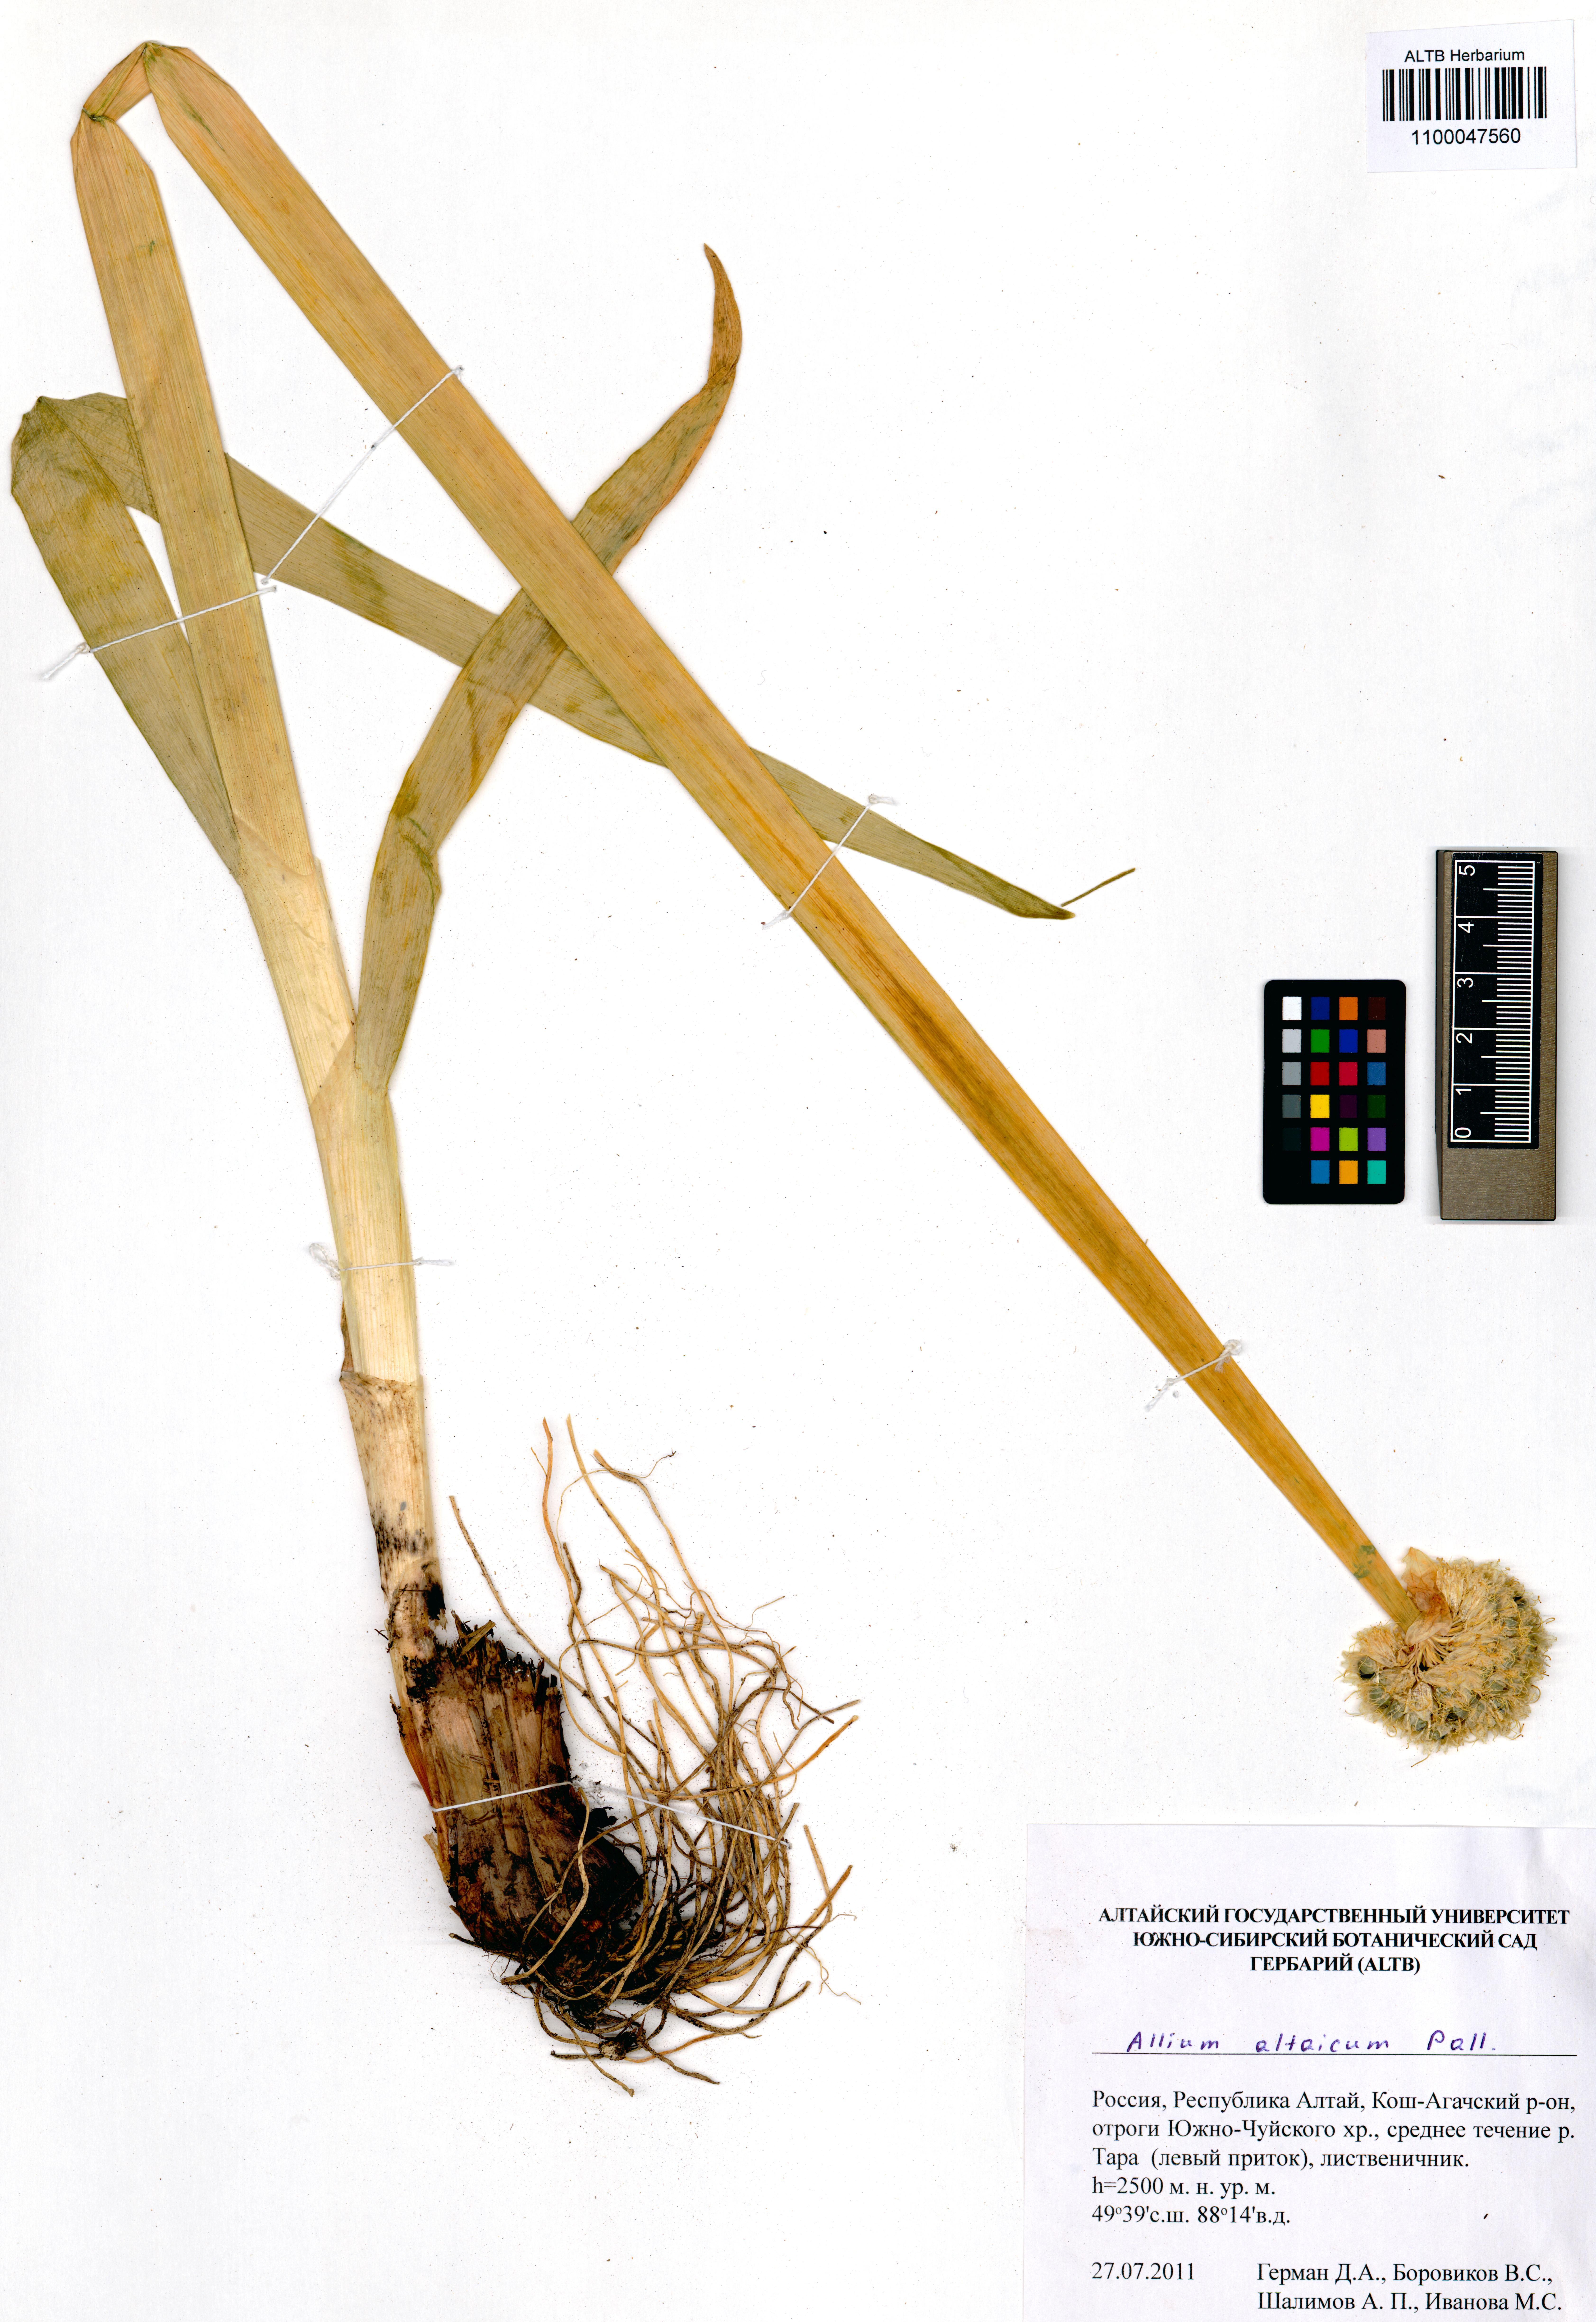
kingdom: Plantae
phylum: Tracheophyta
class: Liliopsida
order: Asparagales
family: Amaryllidaceae
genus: Allium
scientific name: Allium altaicum
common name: Altai onion
